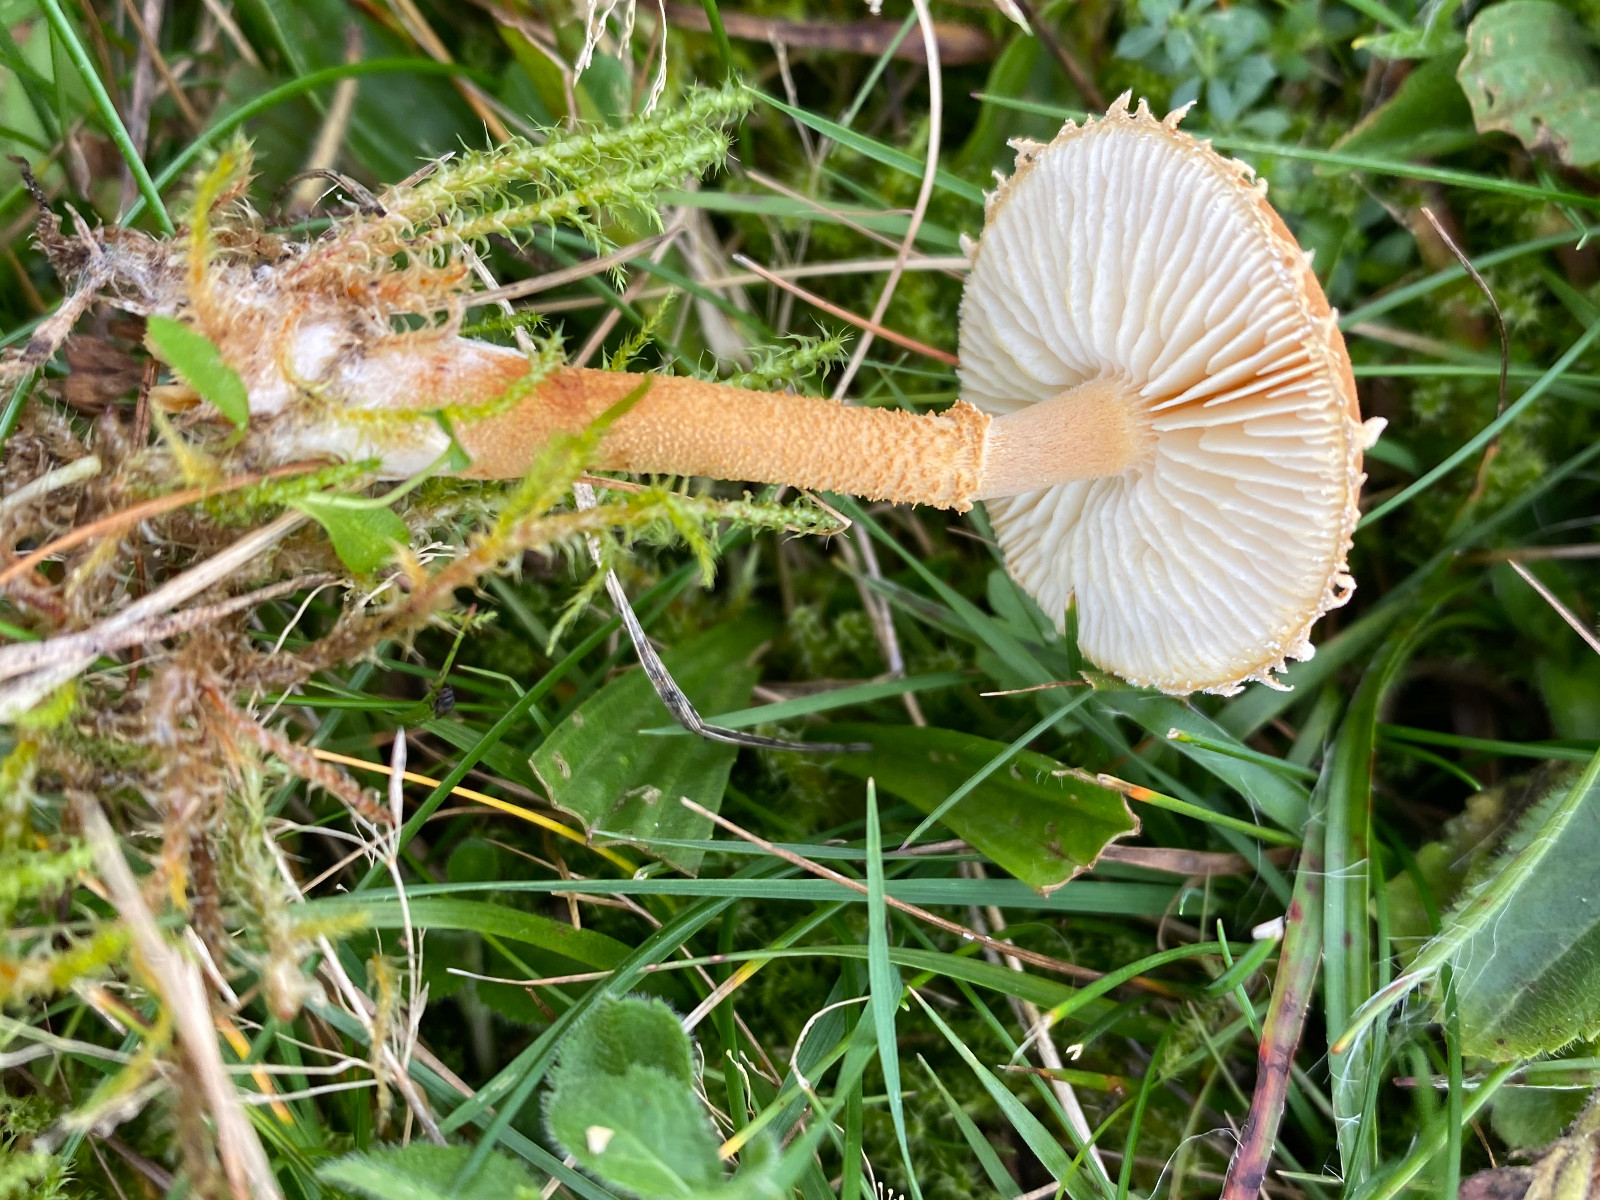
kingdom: Fungi
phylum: Basidiomycota
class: Agaricomycetes
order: Agaricales
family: Tricholomataceae
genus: Cystoderma
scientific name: Cystoderma
